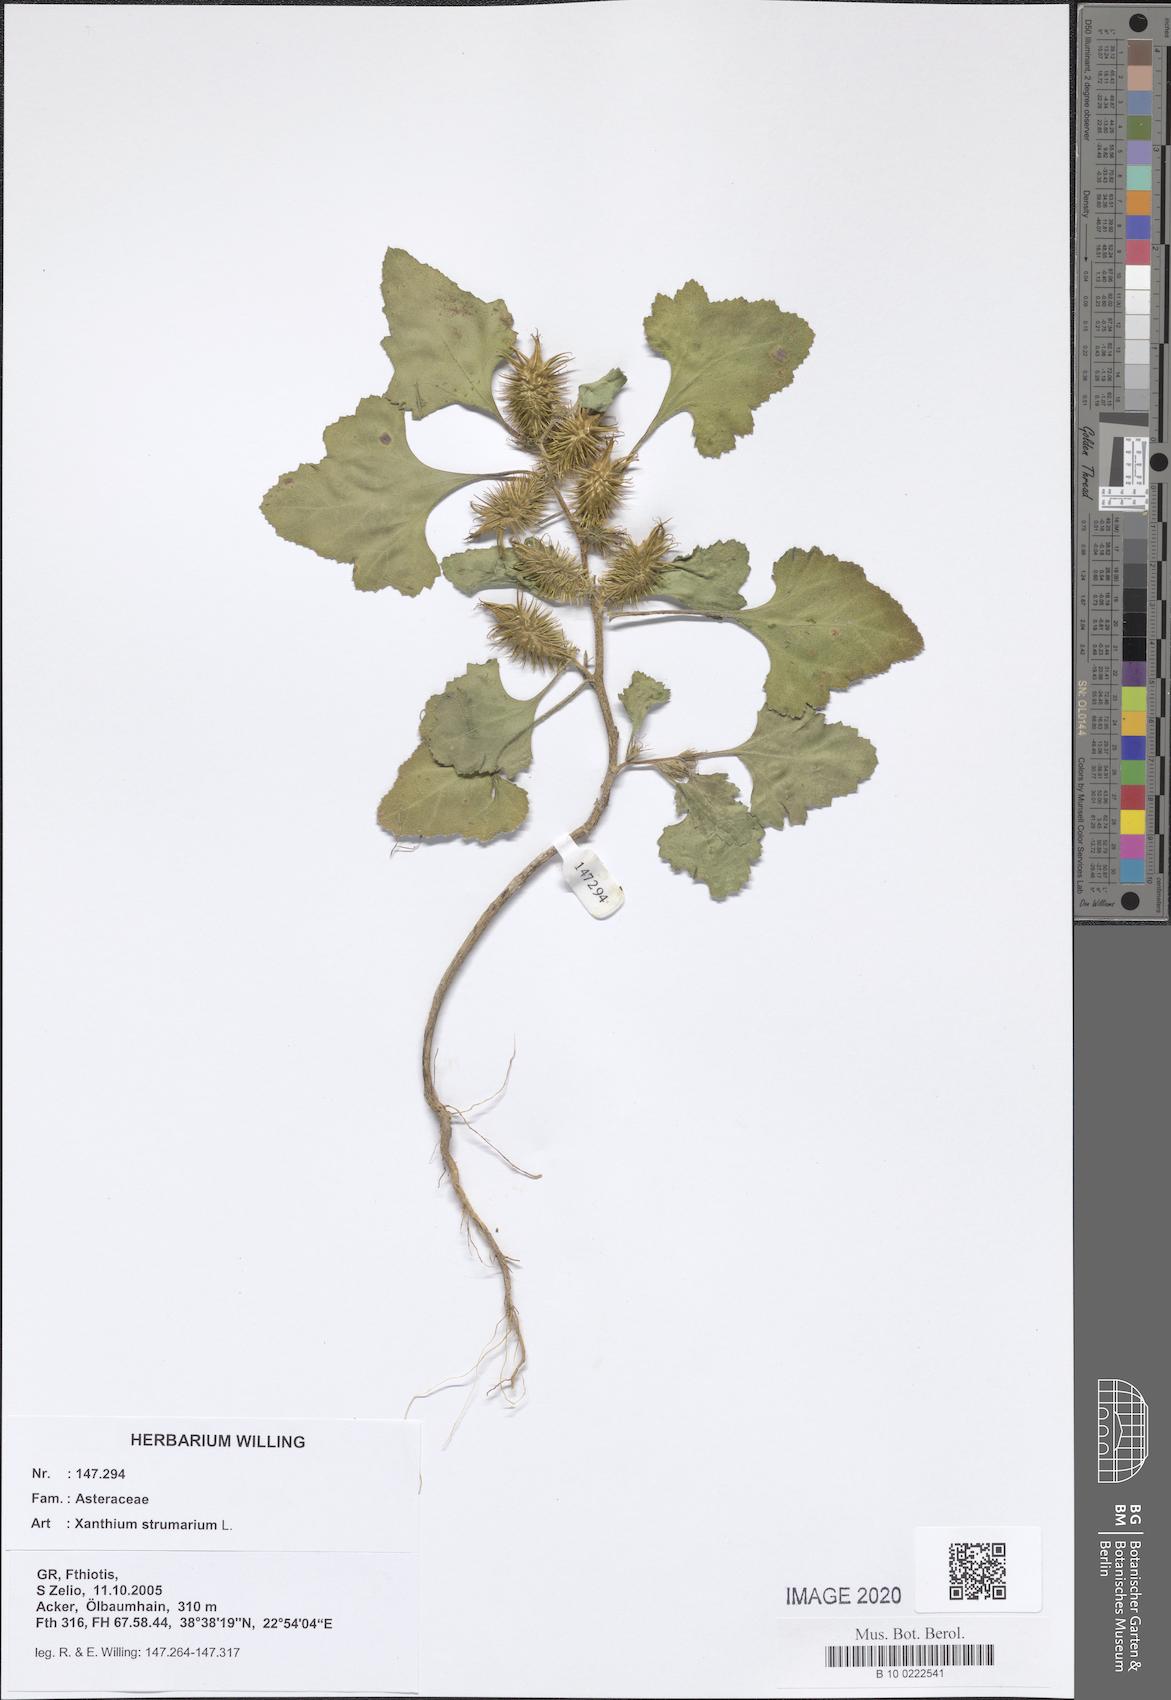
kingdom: Plantae
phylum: Tracheophyta
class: Magnoliopsida
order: Asterales
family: Asteraceae
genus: Xanthium
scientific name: Xanthium strumarium
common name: Rough cocklebur
